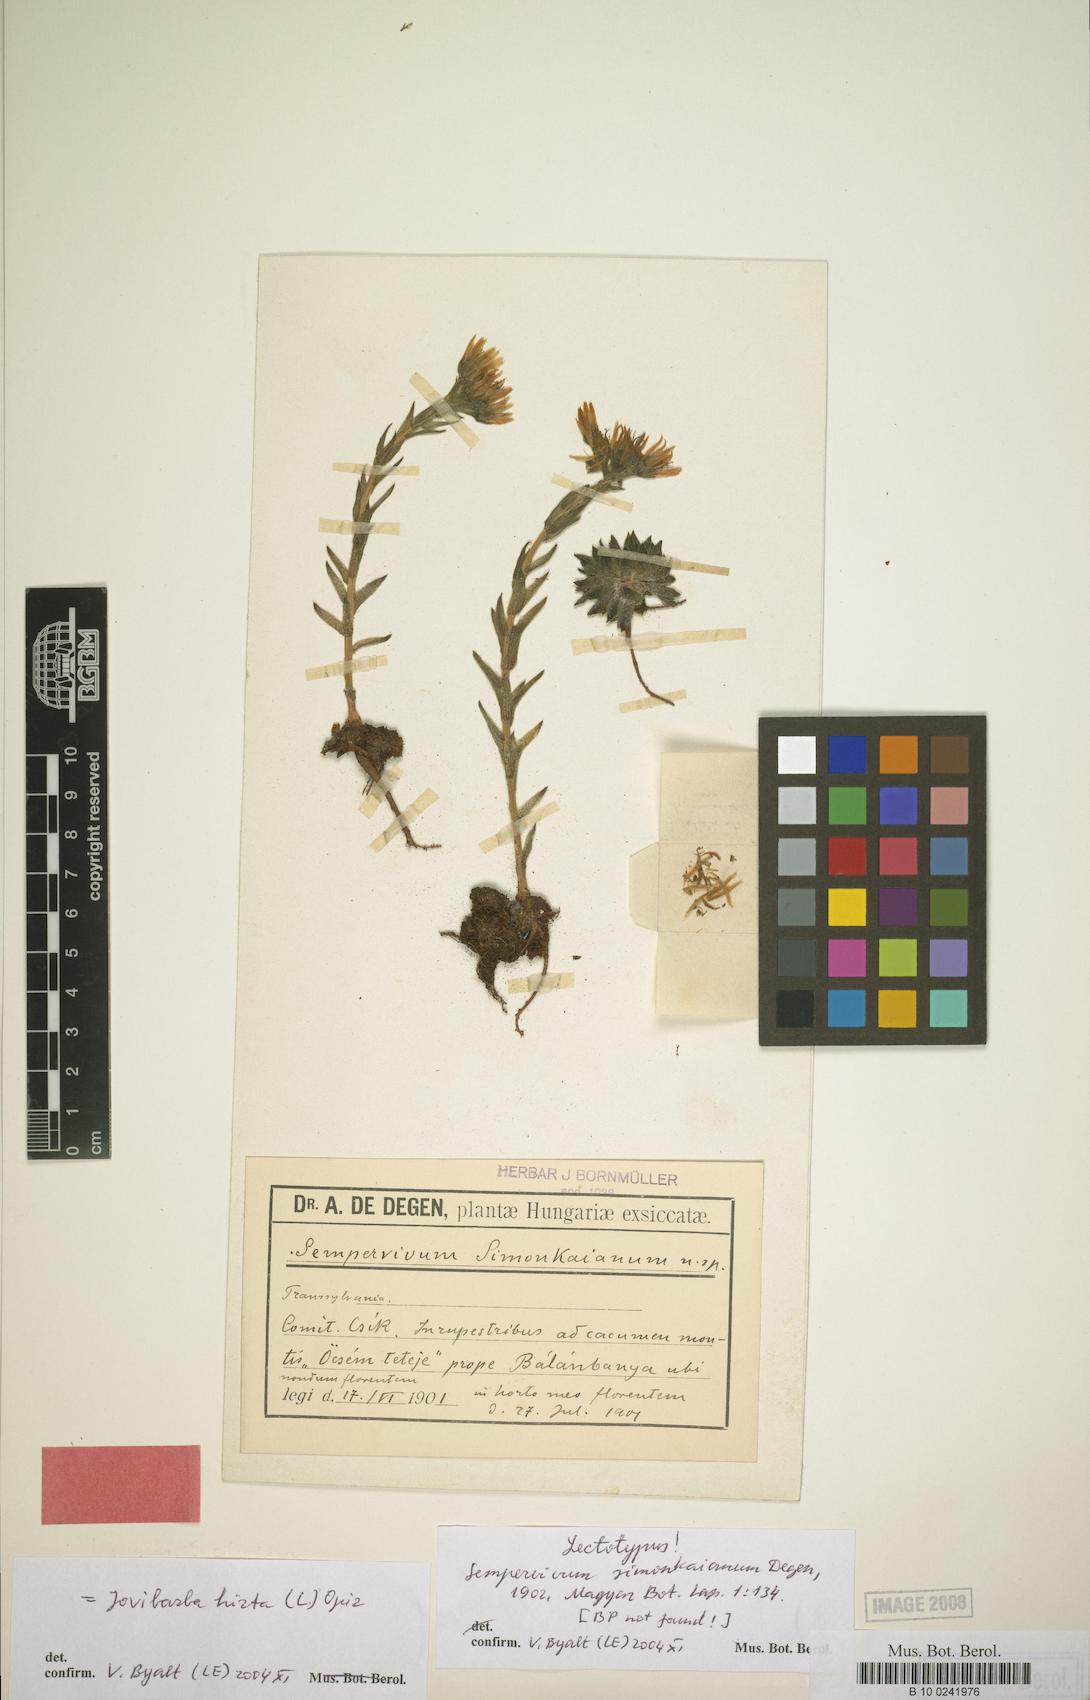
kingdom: Plantae
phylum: Tracheophyta
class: Magnoliopsida
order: Saxifragales
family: Crassulaceae
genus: Sempervivum
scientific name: Sempervivum globiferum
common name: Rolling hen-and-chicks
